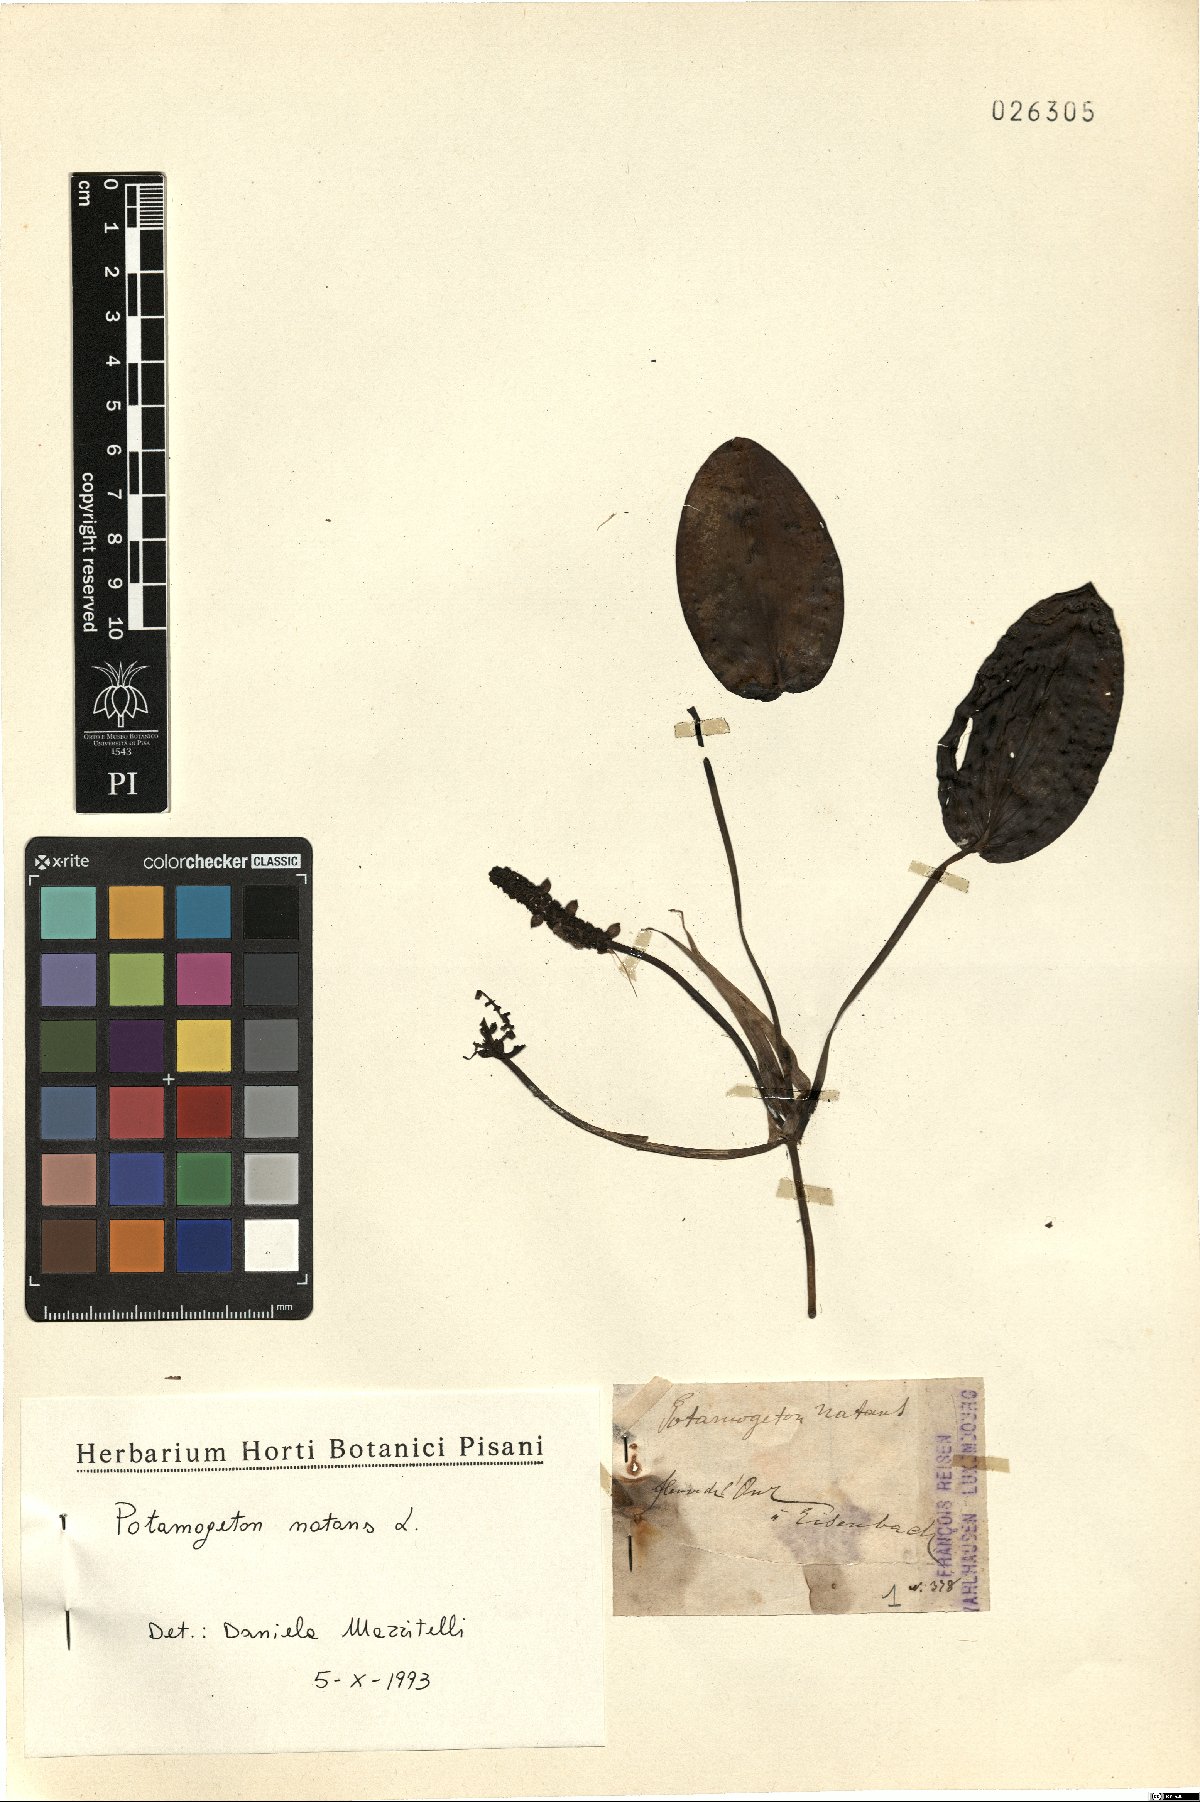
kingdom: Plantae
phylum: Tracheophyta
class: Liliopsida
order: Alismatales
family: Potamogetonaceae
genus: Potamogeton
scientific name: Potamogeton natans
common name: Broad-leaved pondweed
